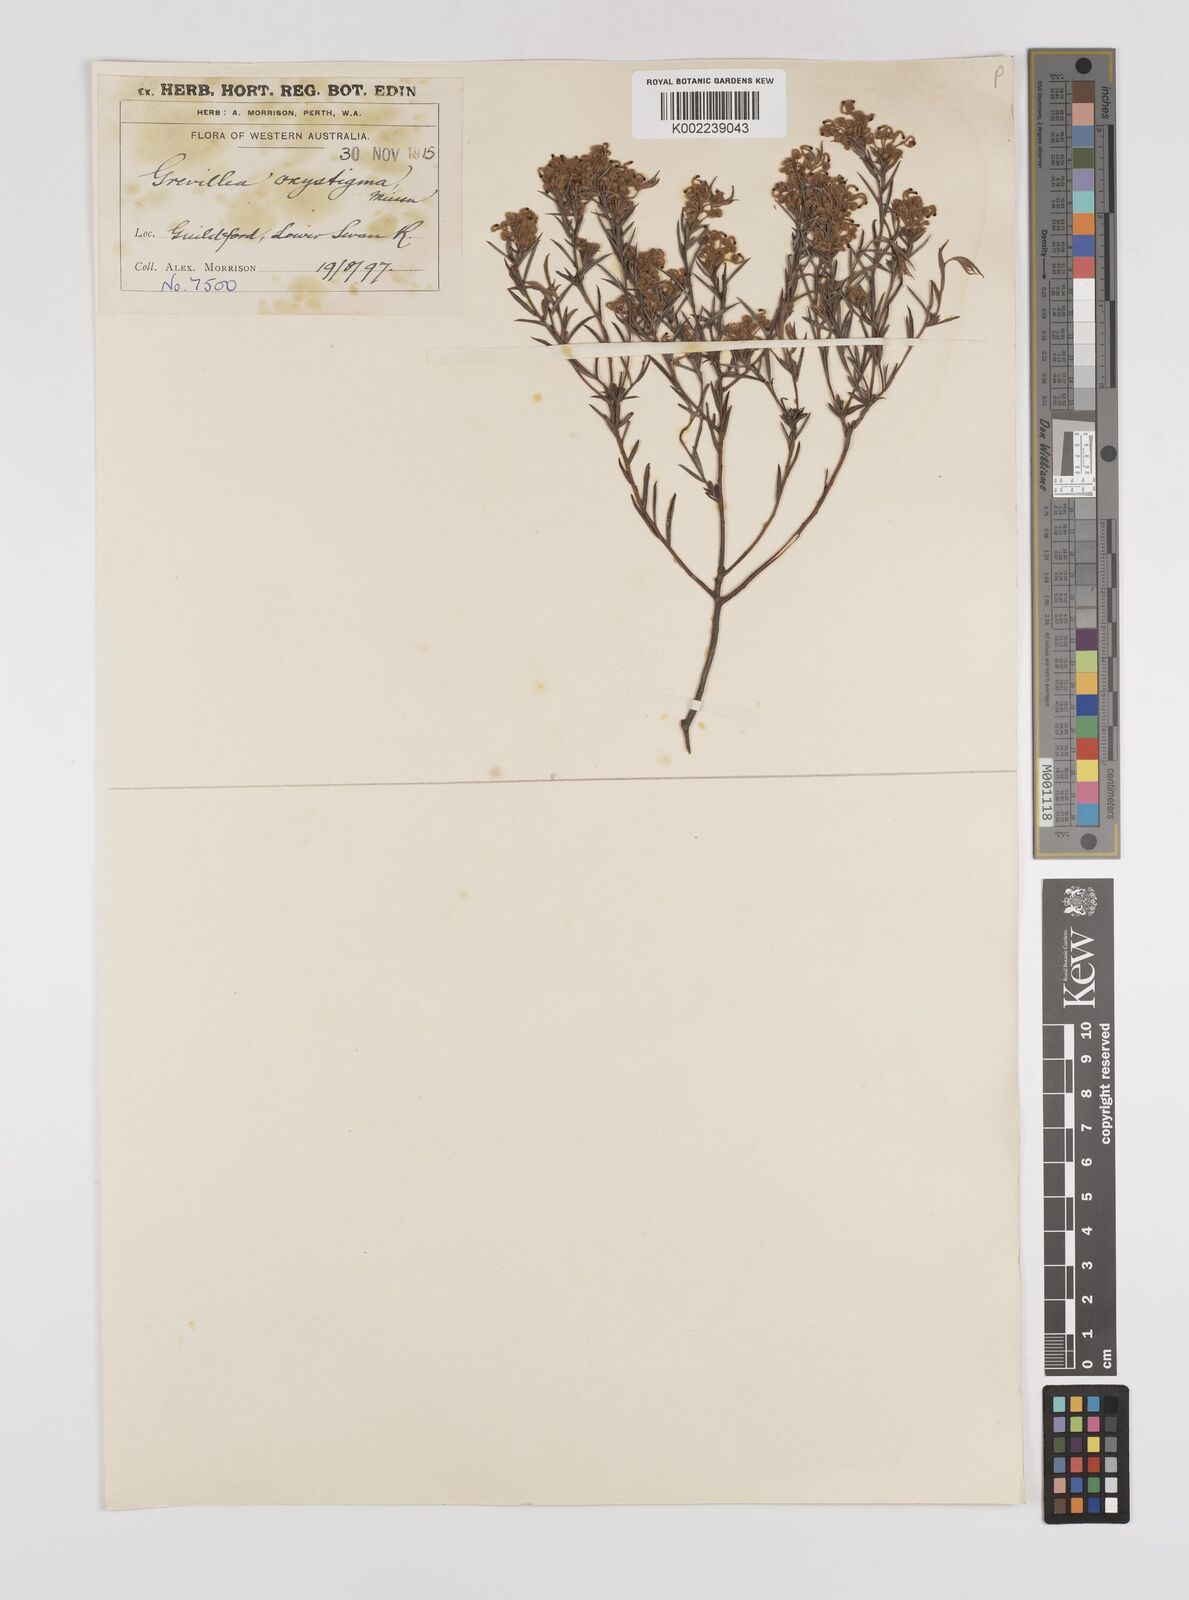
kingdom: Plantae
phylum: Tracheophyta
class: Magnoliopsida
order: Proteales
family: Proteaceae
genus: Grevillea
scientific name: Grevillea pilulifera
